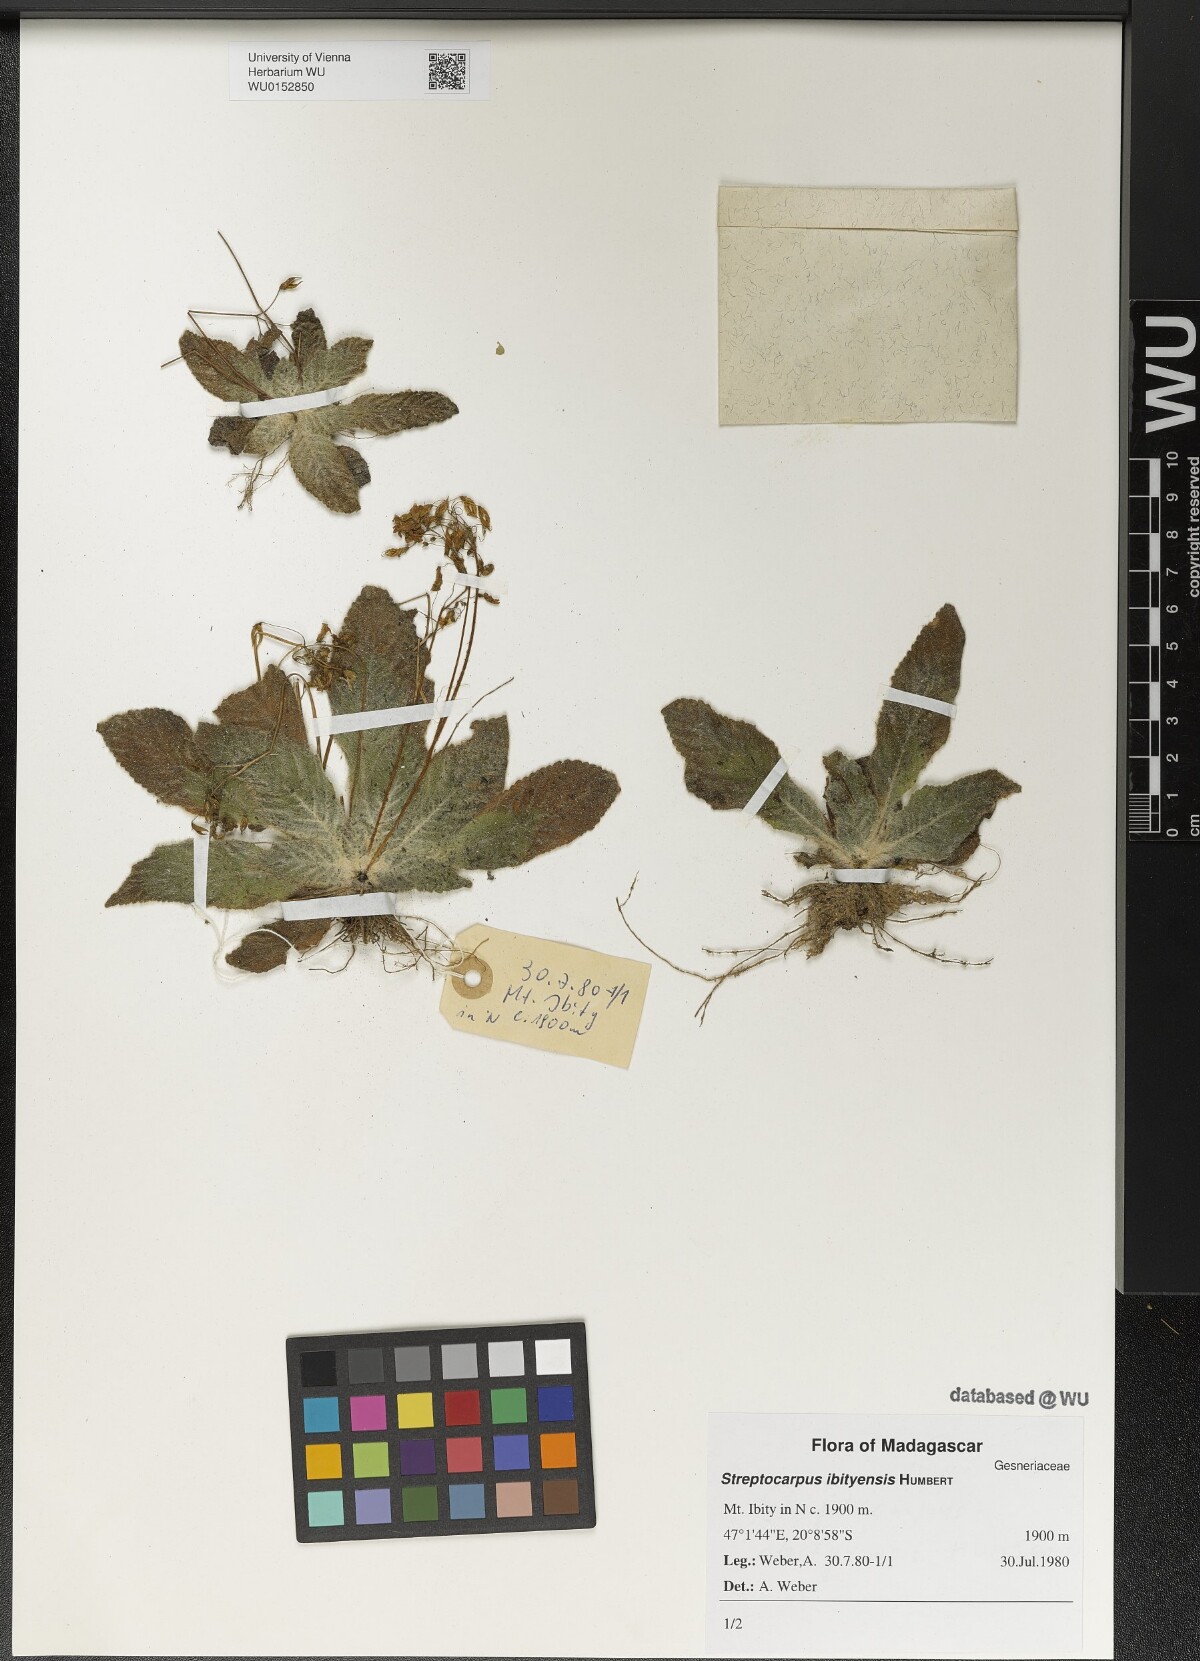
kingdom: Plantae
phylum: Tracheophyta
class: Magnoliopsida
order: Lamiales
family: Gesneriaceae
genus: Streptocarpus
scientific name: Streptocarpus ibityensis
